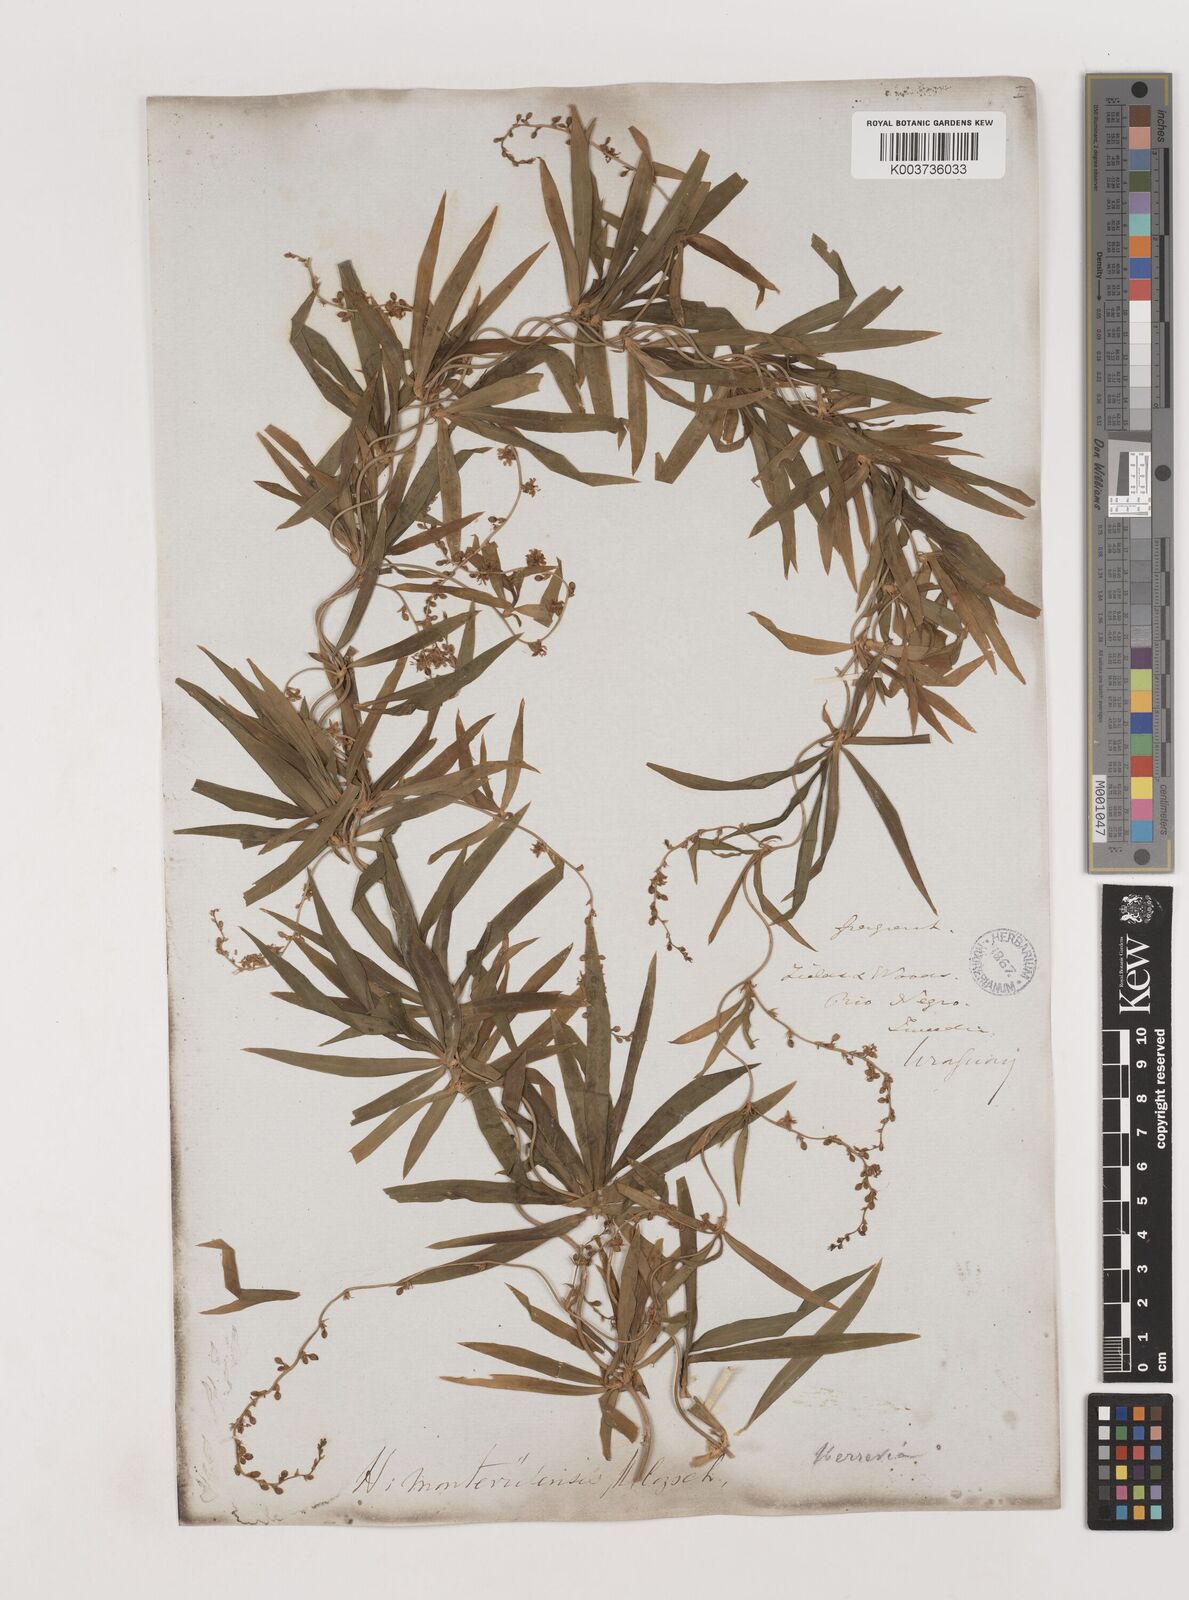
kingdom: Plantae
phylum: Tracheophyta
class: Liliopsida
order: Asparagales
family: Asparagaceae
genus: Herreria
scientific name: Herreria montevidensis
